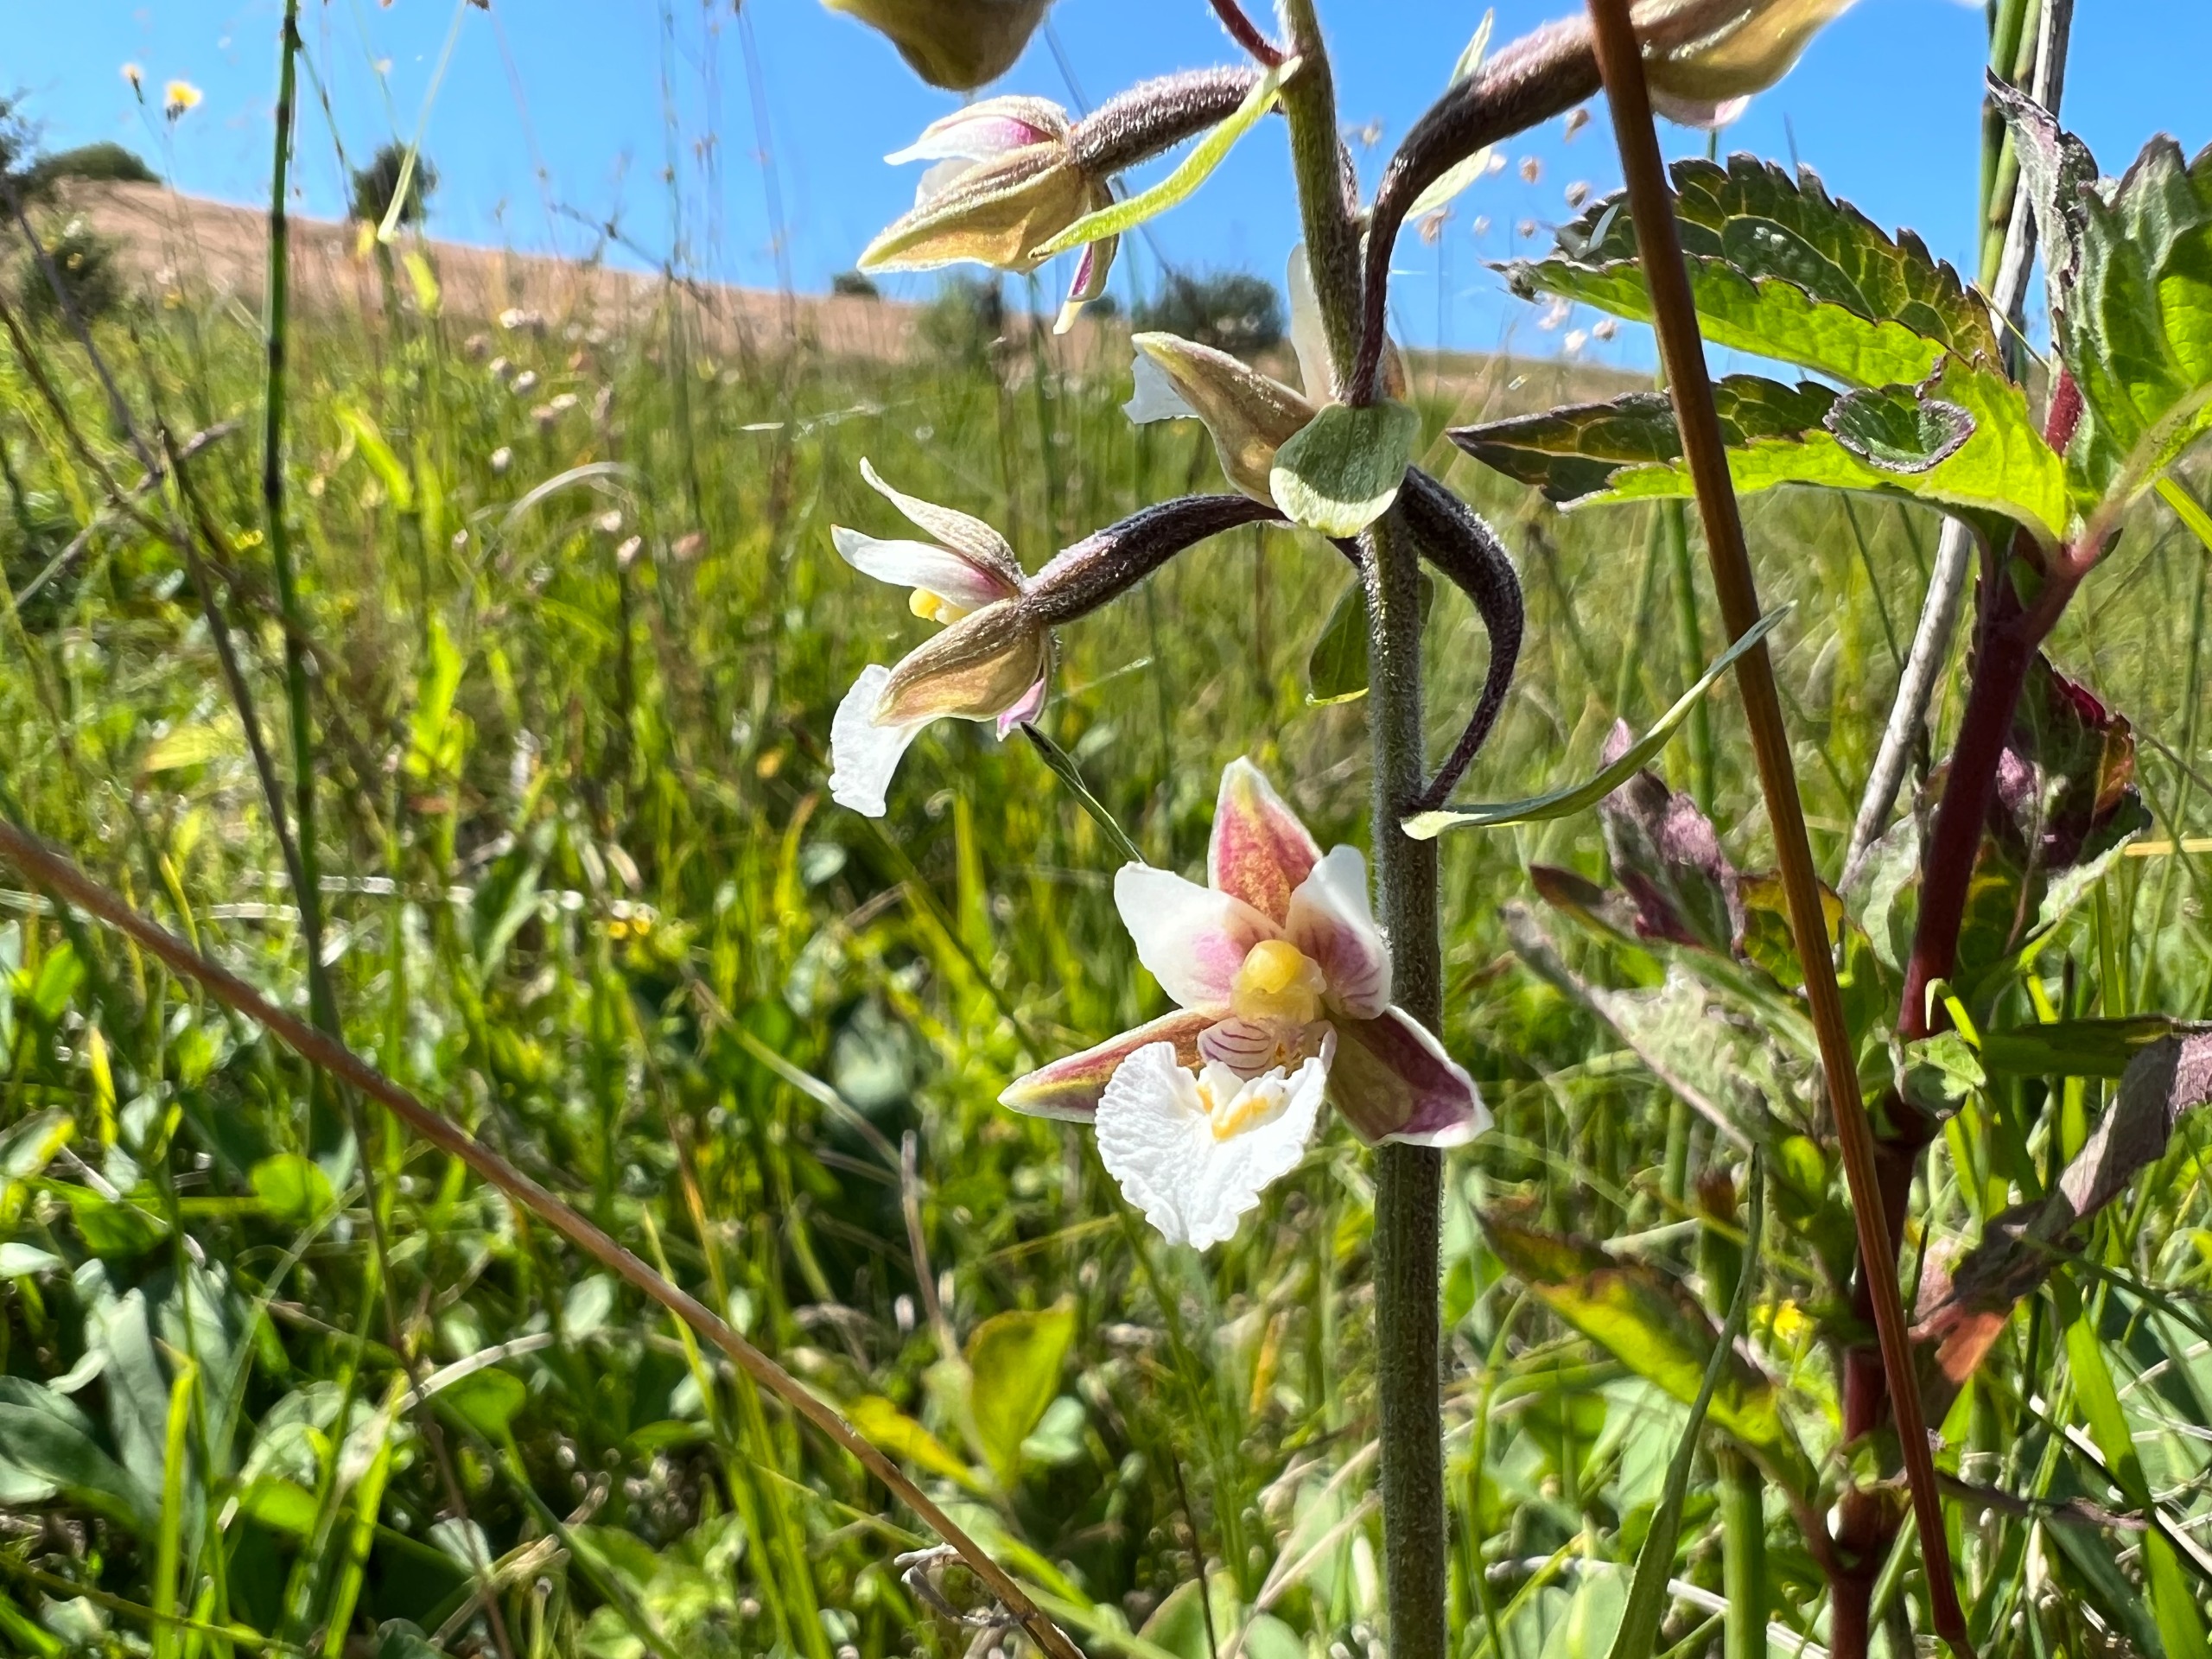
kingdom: Plantae
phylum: Tracheophyta
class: Liliopsida
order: Asparagales
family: Orchidaceae
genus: Epipactis
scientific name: Epipactis palustris
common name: Sump-hullæbe
